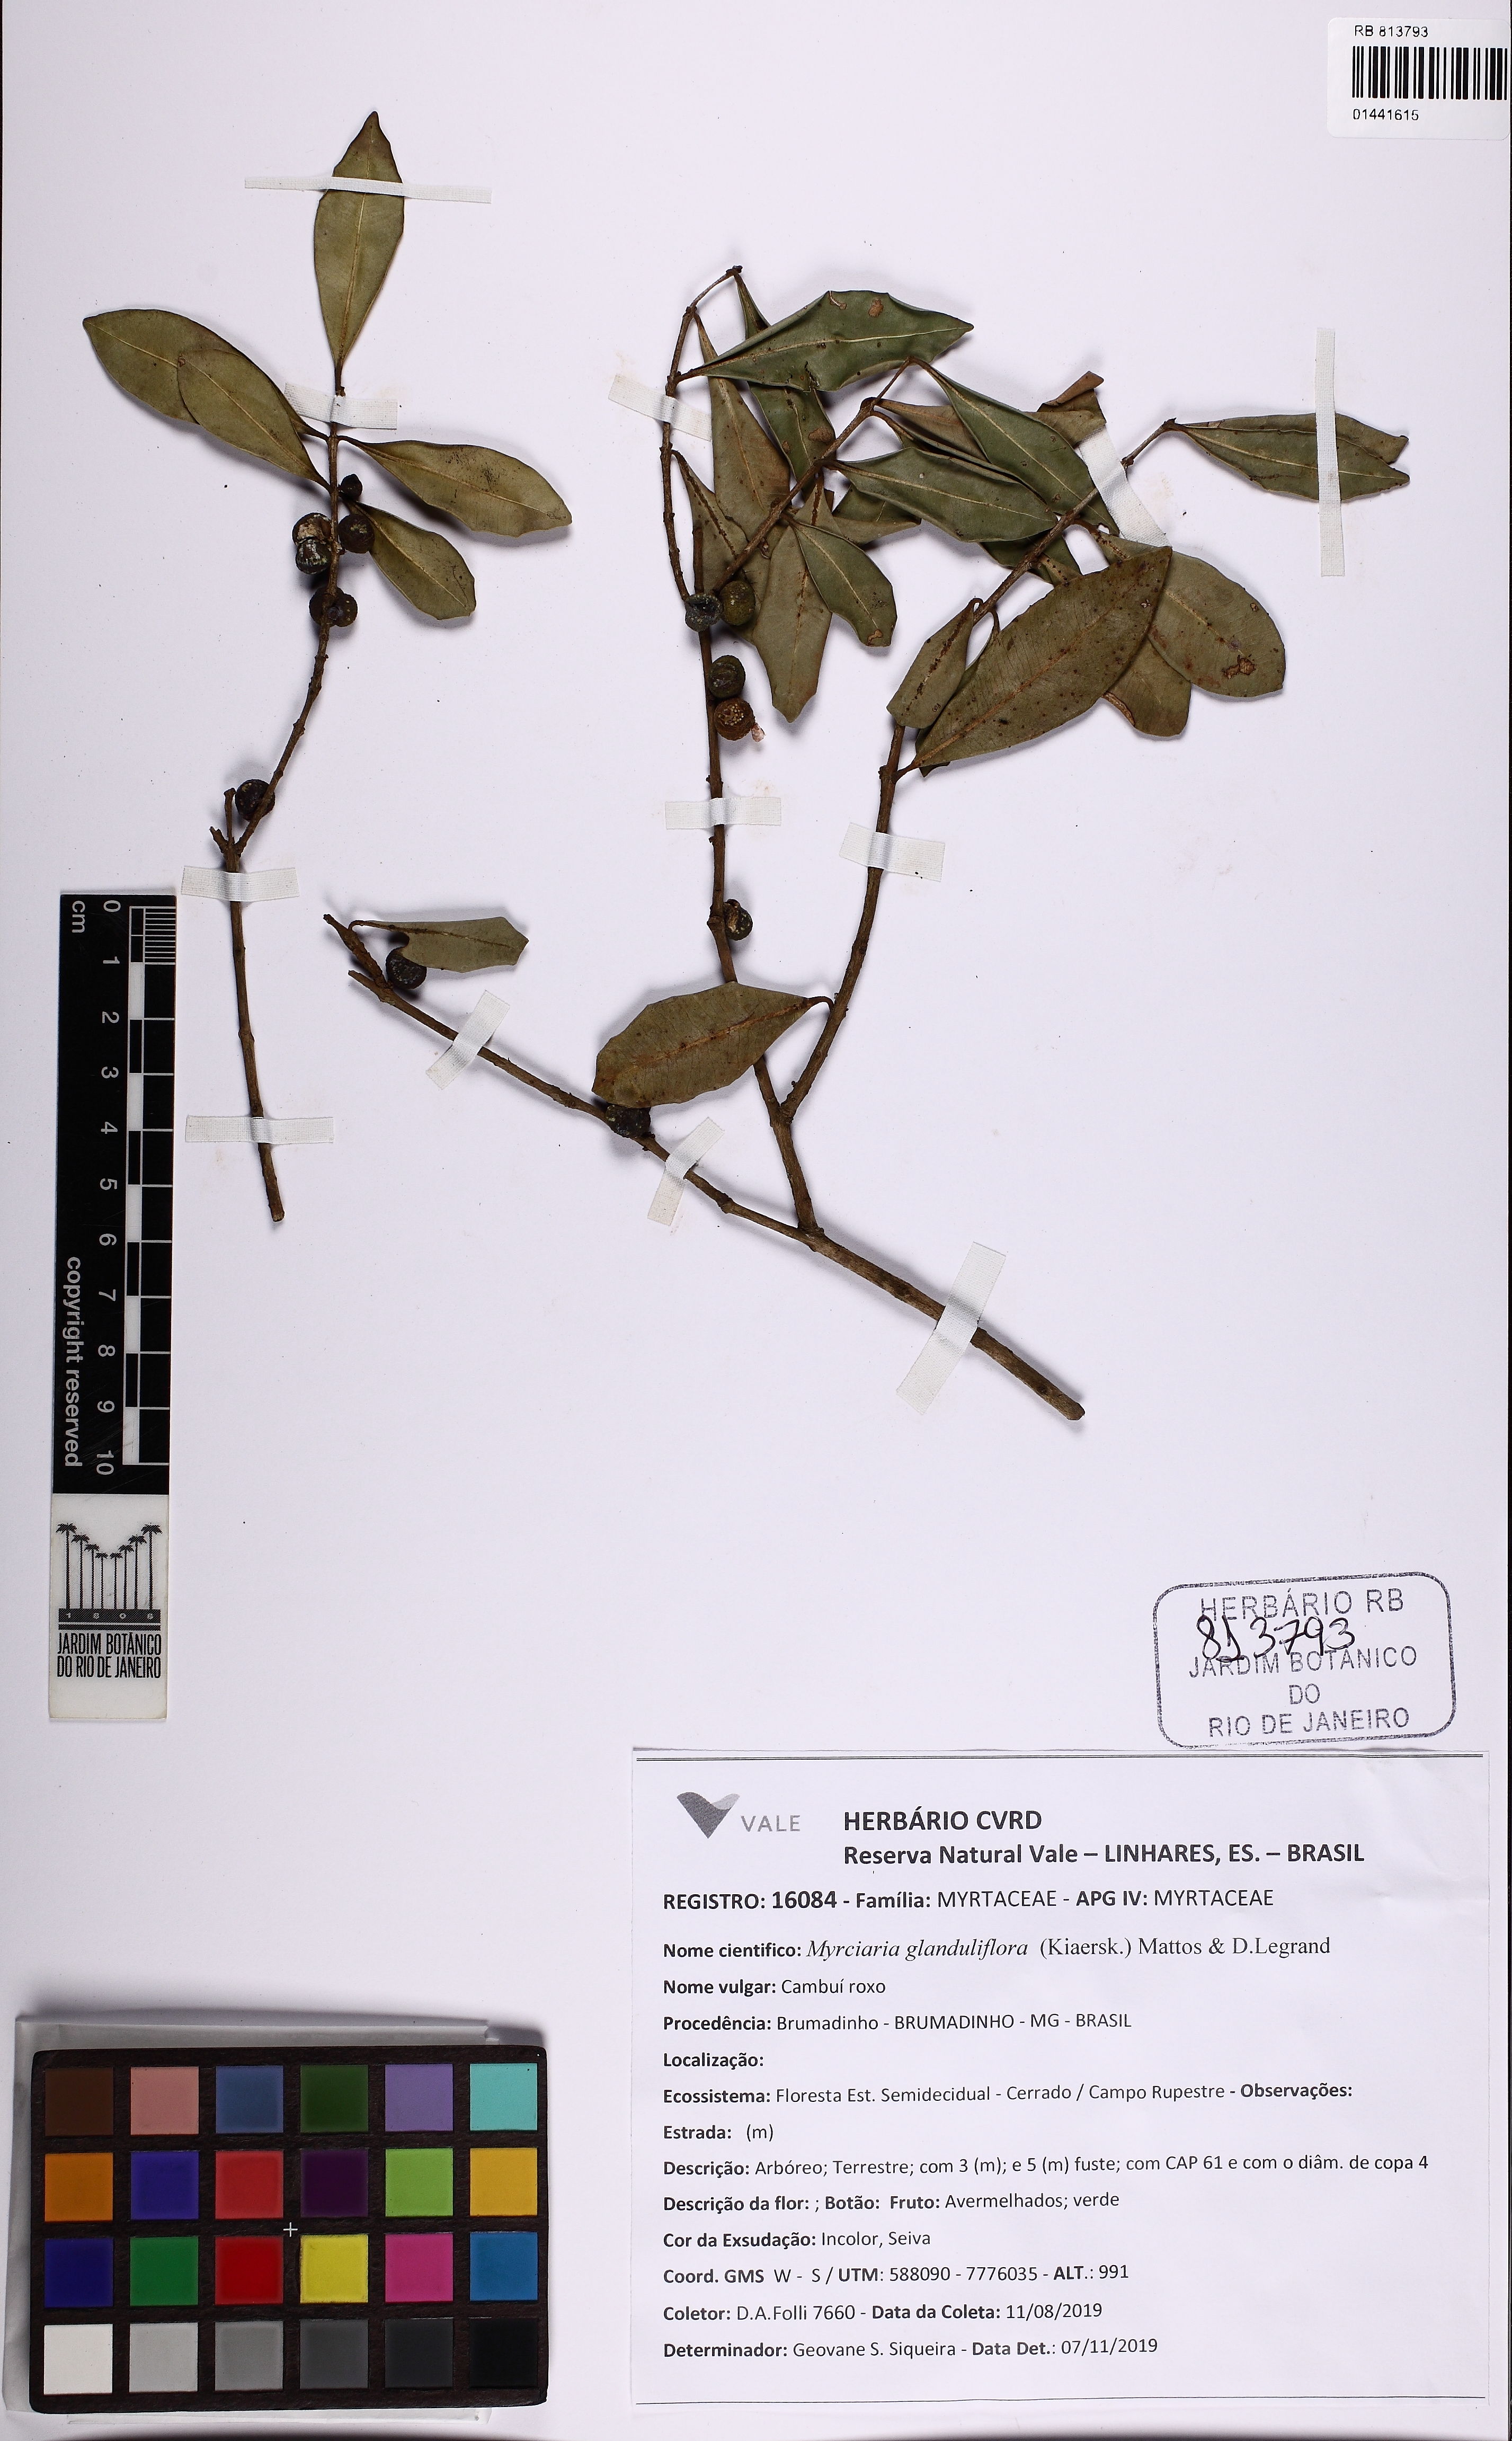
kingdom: Plantae
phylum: Tracheophyta
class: Magnoliopsida
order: Myrtales
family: Myrtaceae
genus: Myrciaria
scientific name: Myrciaria glanduliflora
